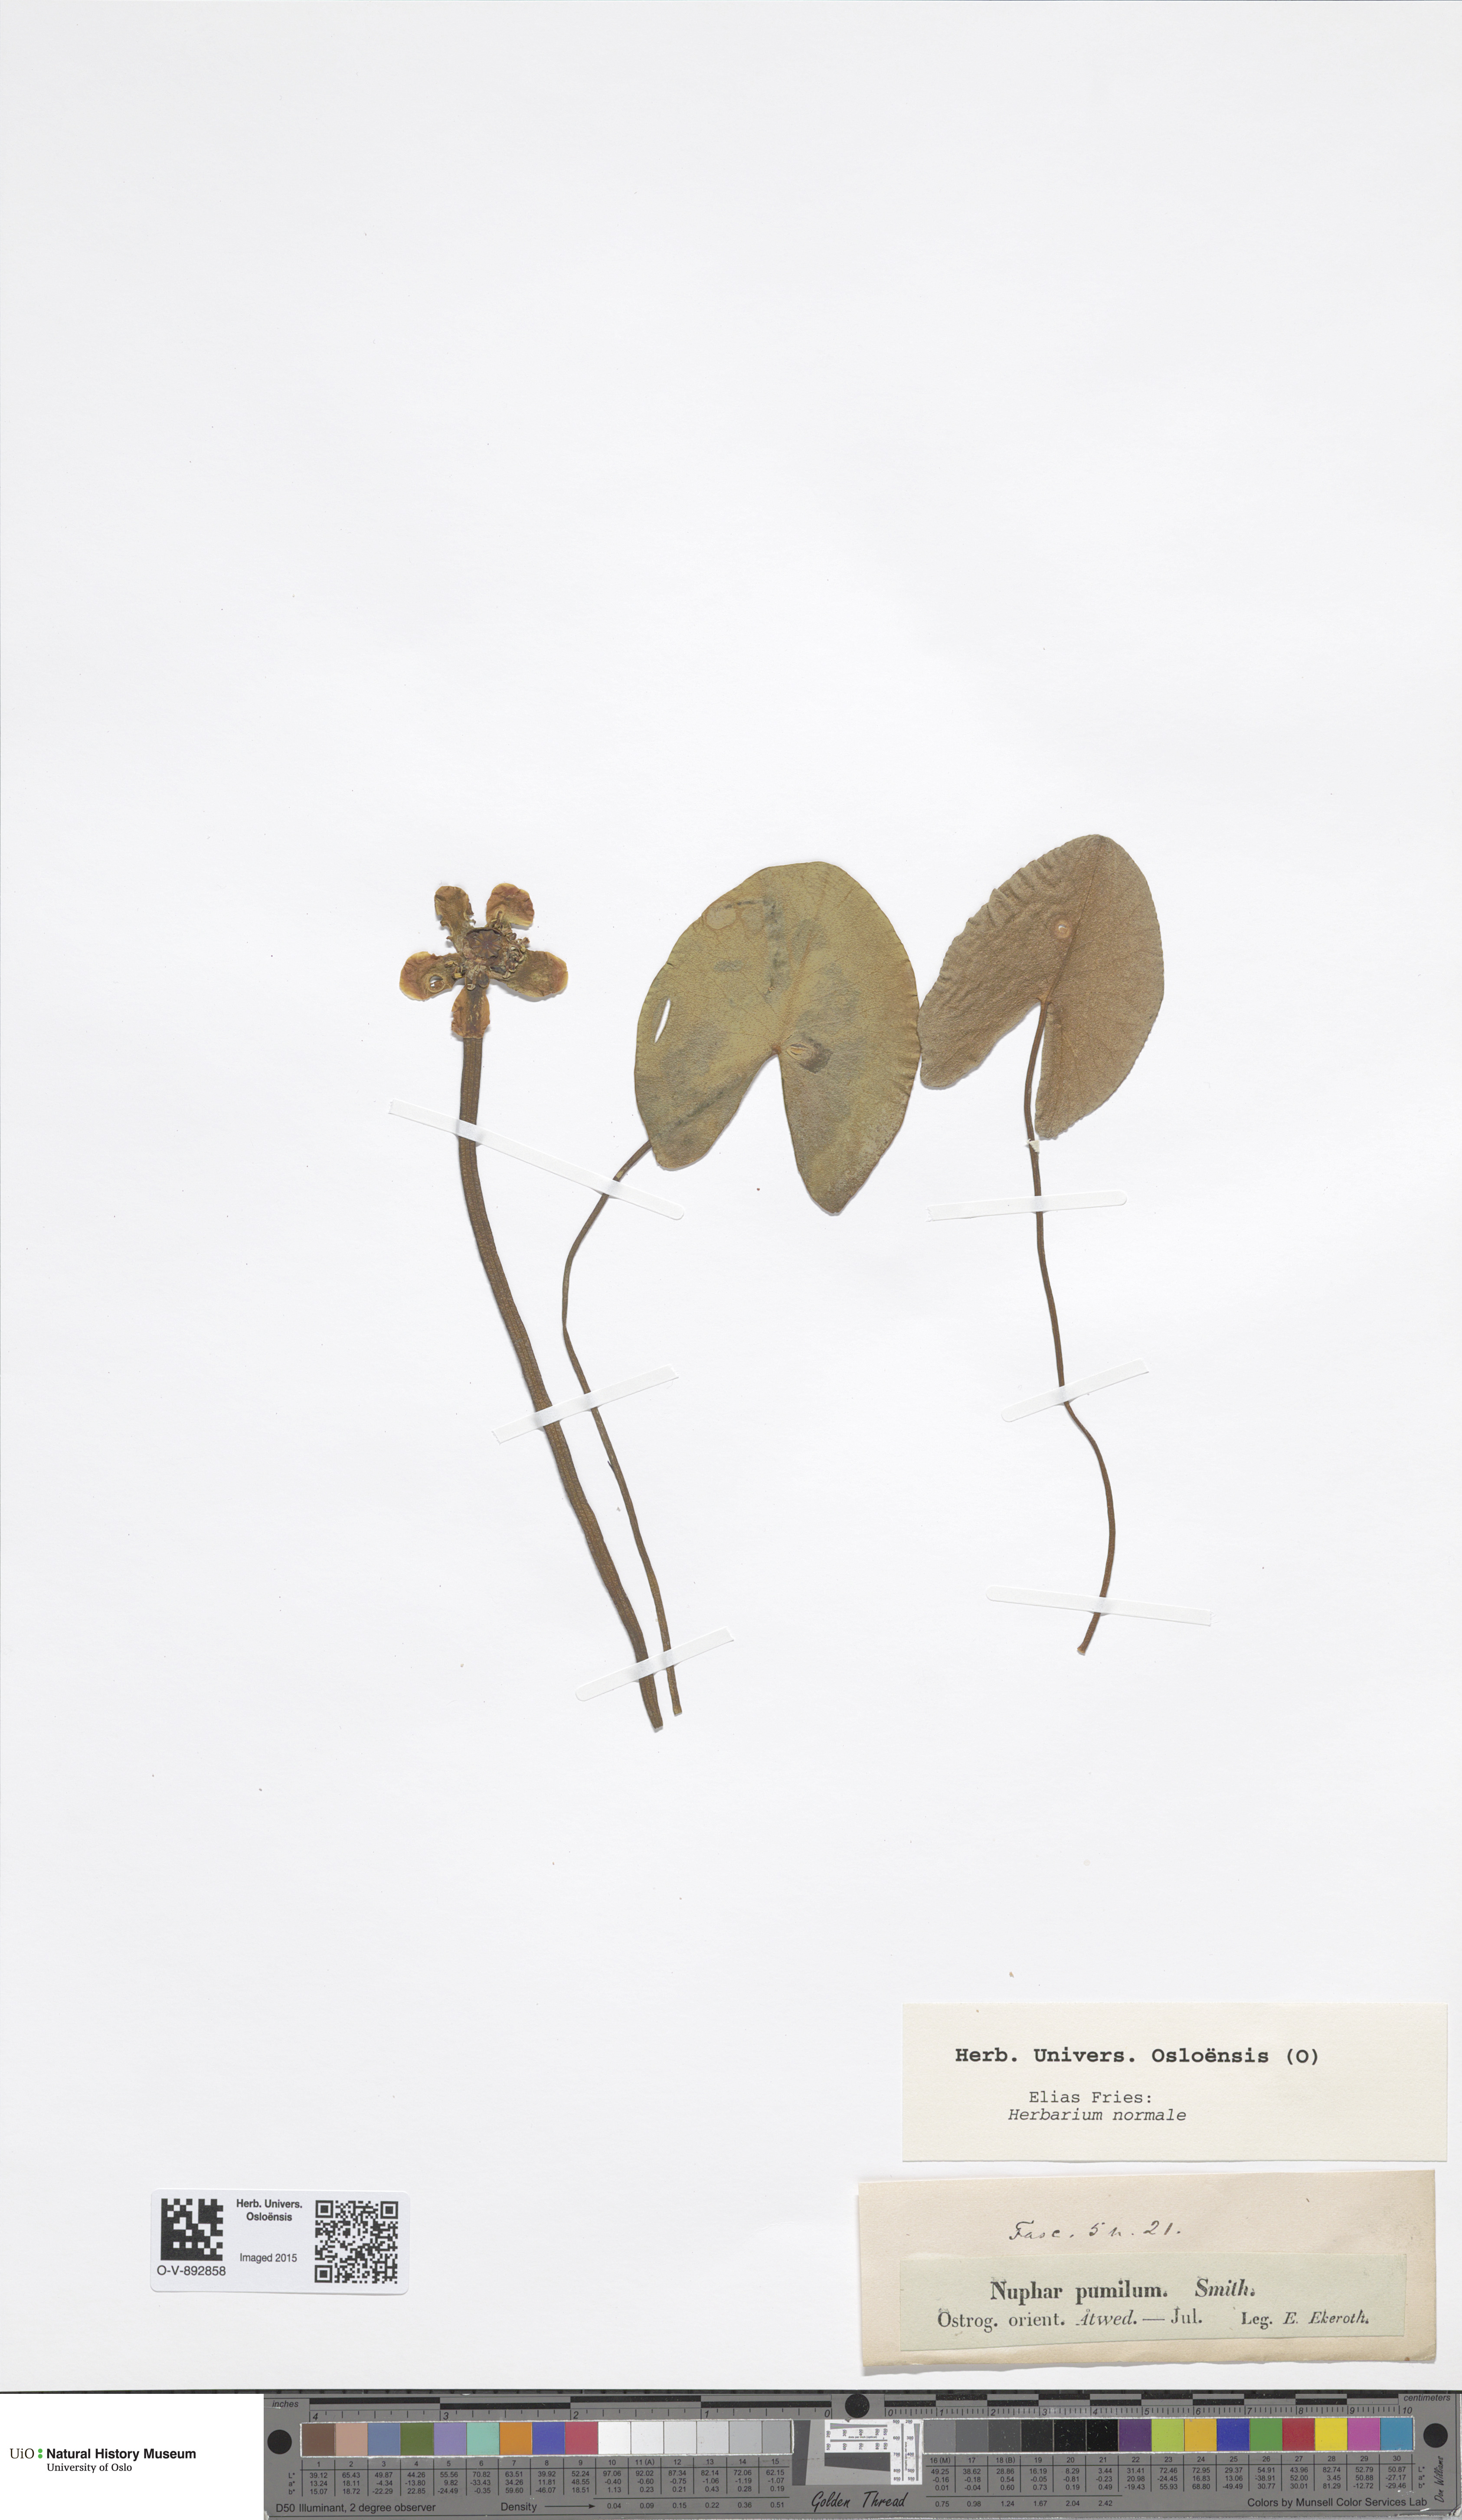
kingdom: Plantae
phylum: Tracheophyta
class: Magnoliopsida
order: Nymphaeales
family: Nymphaeaceae
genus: Nuphar
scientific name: Nuphar pumila
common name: Least water-lily
